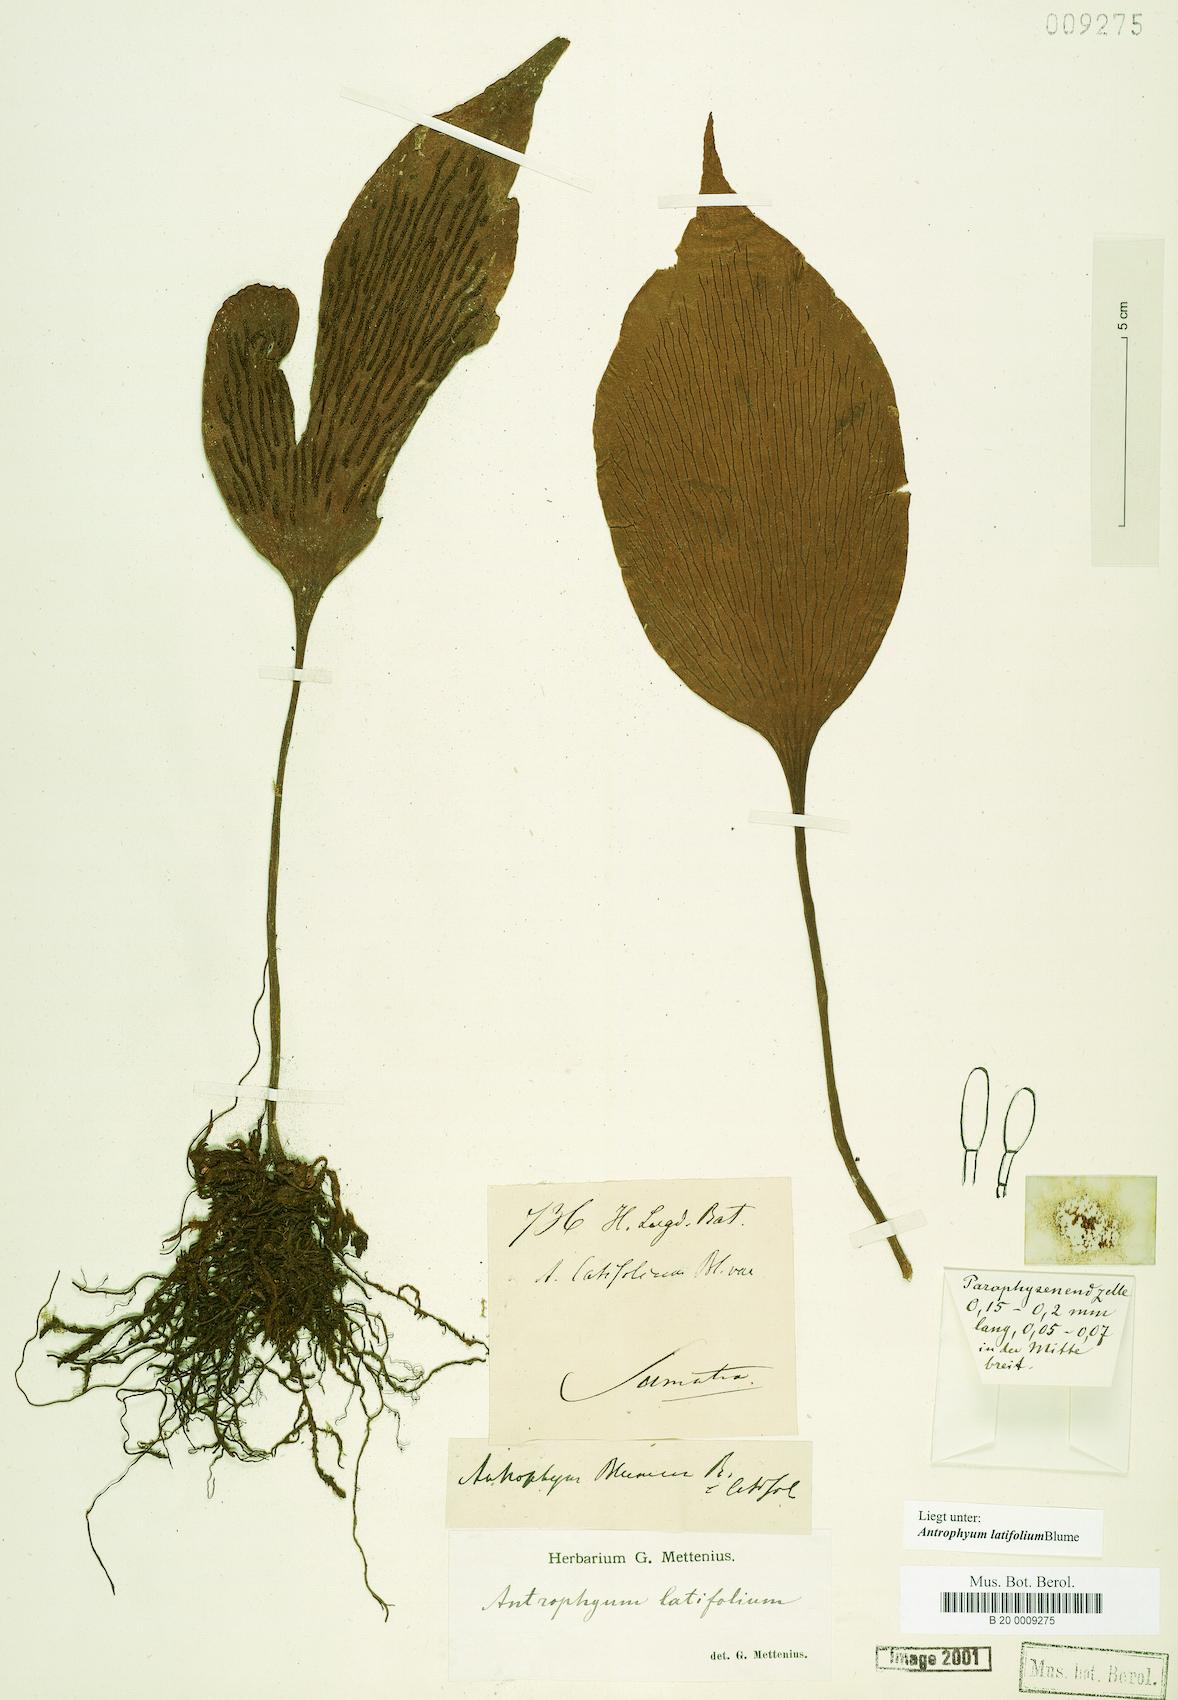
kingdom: Plantae
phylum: Tracheophyta
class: Polypodiopsida
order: Polypodiales
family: Pteridaceae
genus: Antrophyum
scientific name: Antrophyum latifolium
